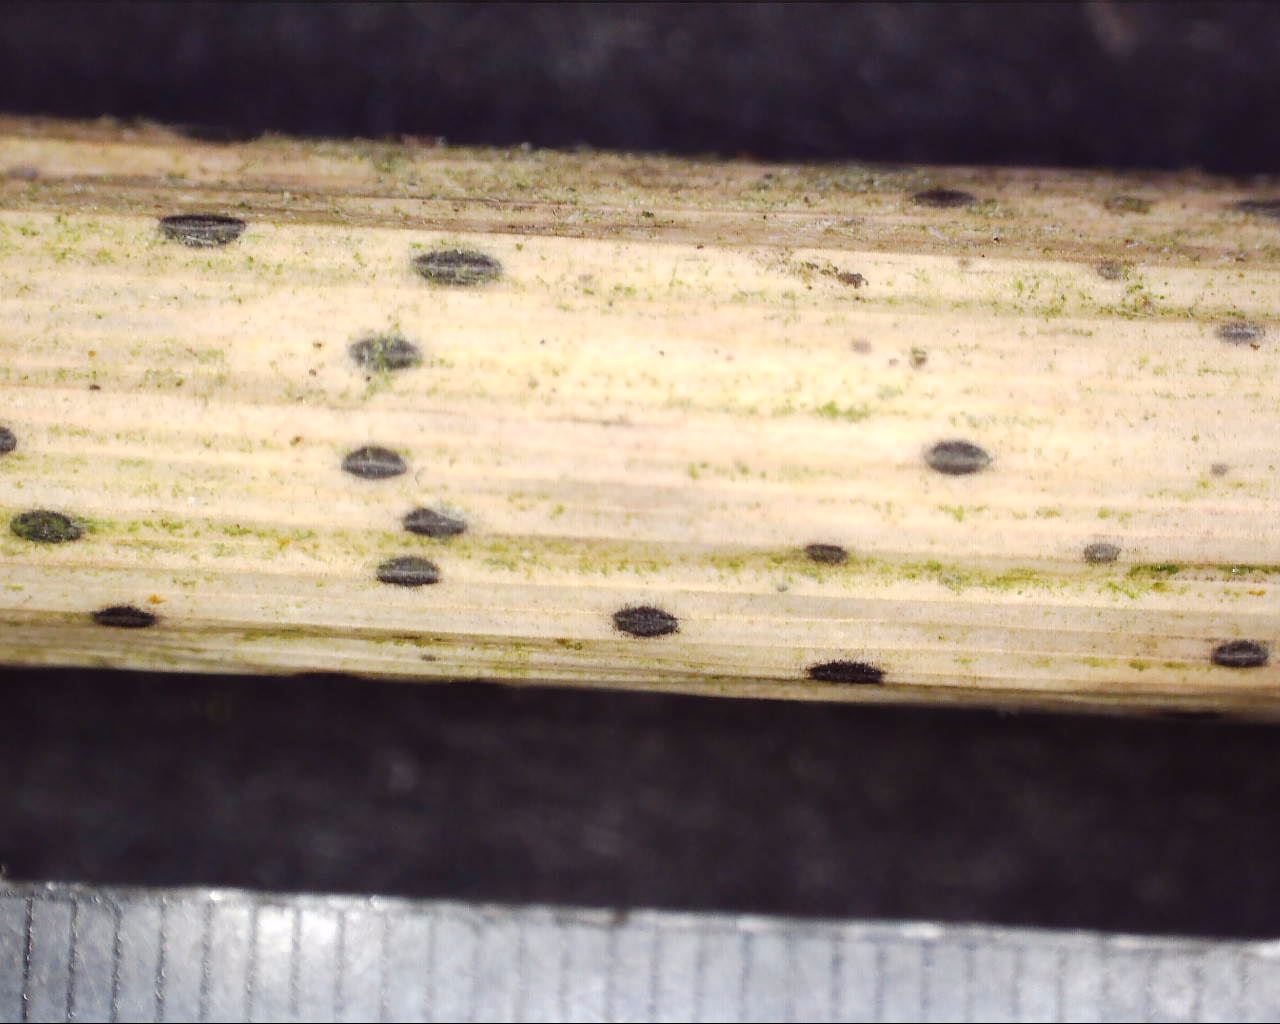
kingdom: Fungi
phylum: Ascomycota
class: Leotiomycetes
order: Rhytismatales
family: Rhytismataceae
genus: Lophodermium
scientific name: Lophodermium arundinaceum
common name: almindelig fureplet
